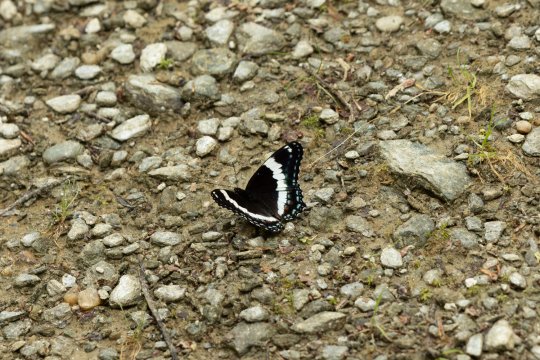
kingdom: Animalia
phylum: Arthropoda
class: Insecta
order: Lepidoptera
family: Nymphalidae
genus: Limenitis
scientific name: Limenitis arthemis
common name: Red-spotted Admiral
